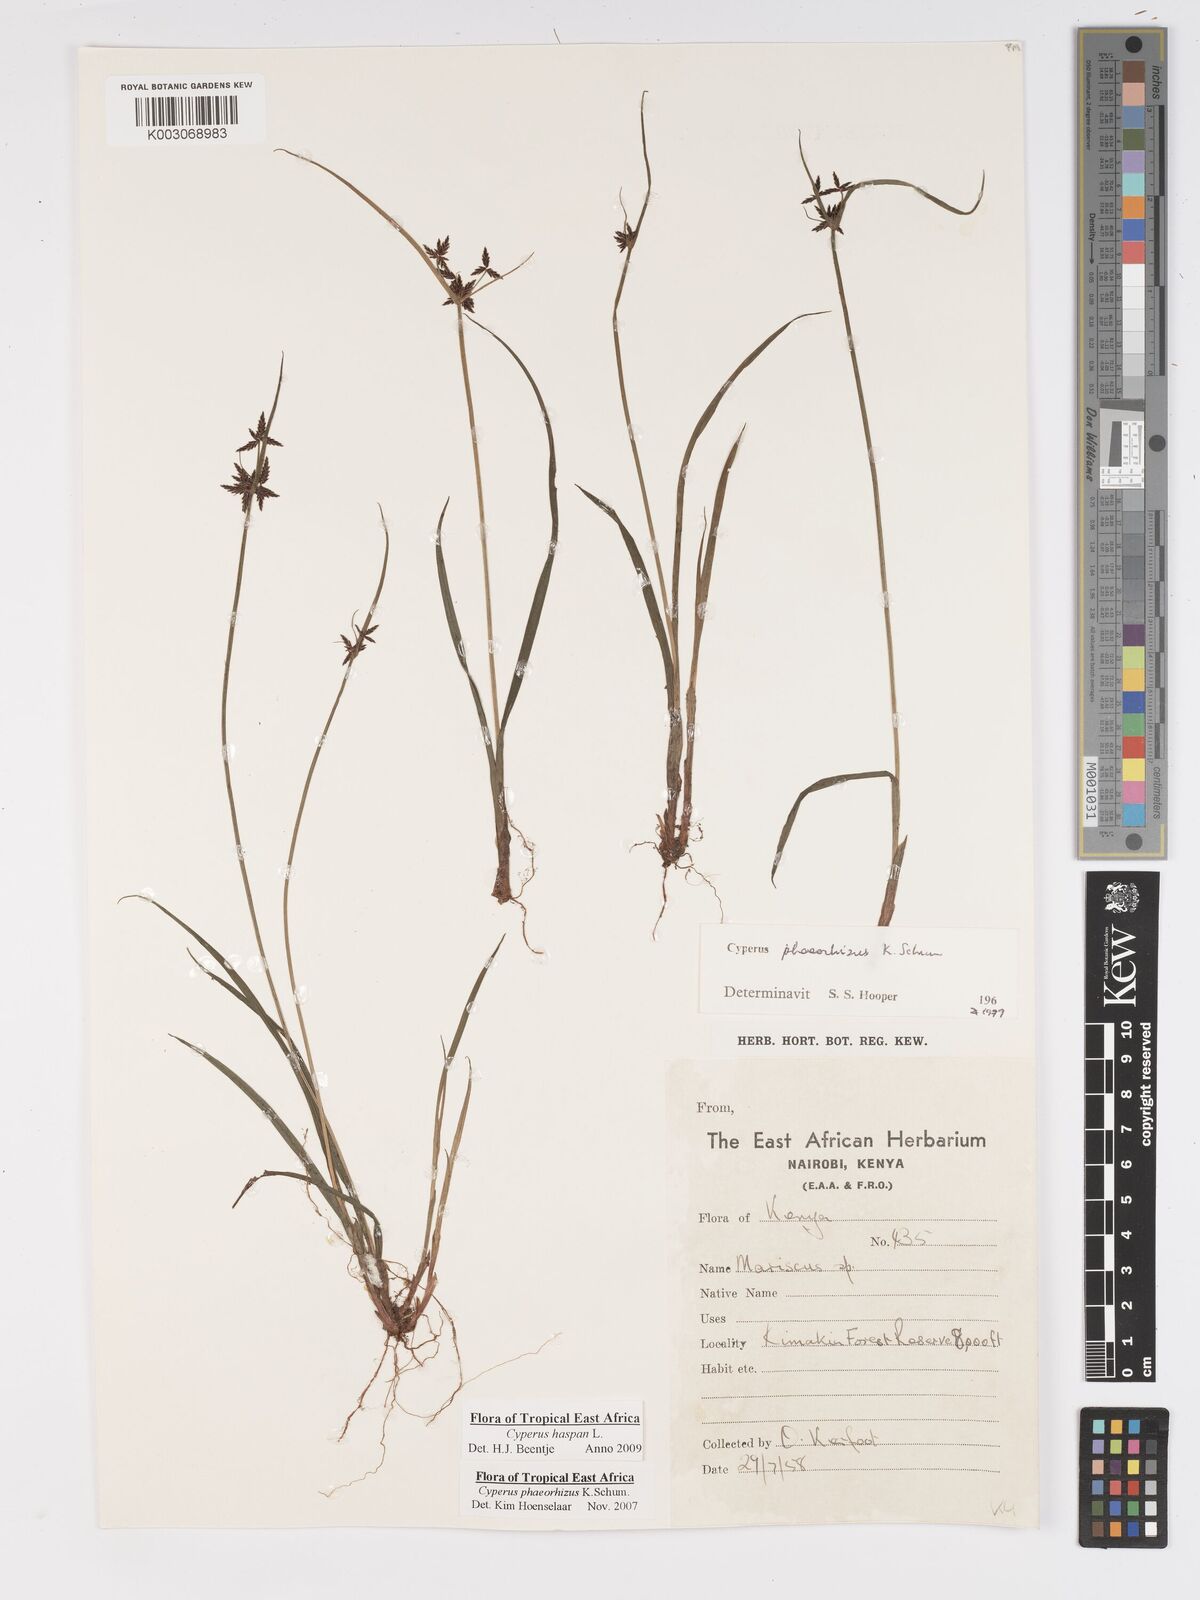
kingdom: Plantae
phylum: Tracheophyta
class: Liliopsida
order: Poales
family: Cyperaceae
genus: Cyperus
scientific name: Cyperus haspan
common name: Haspan flatsedge
